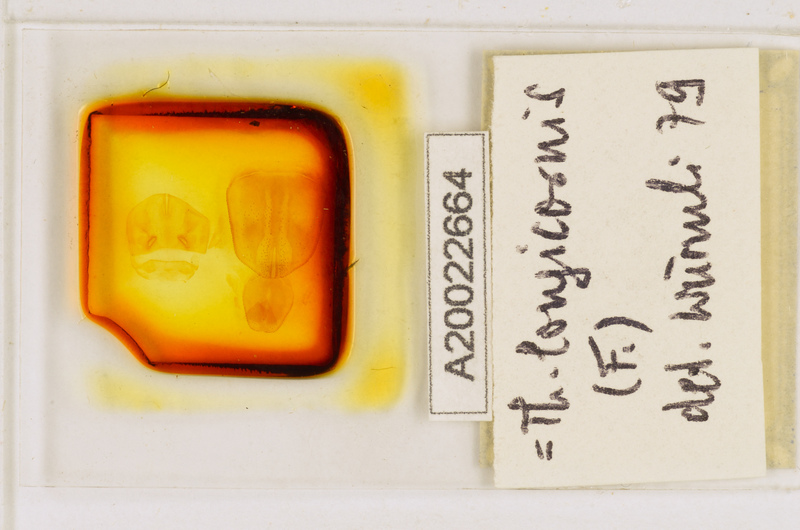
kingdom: Animalia
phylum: Arthropoda
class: Chilopoda
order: Scutigeromorpha
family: Scutigeridae
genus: Thereuopoda
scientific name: Thereuopoda longicornis
